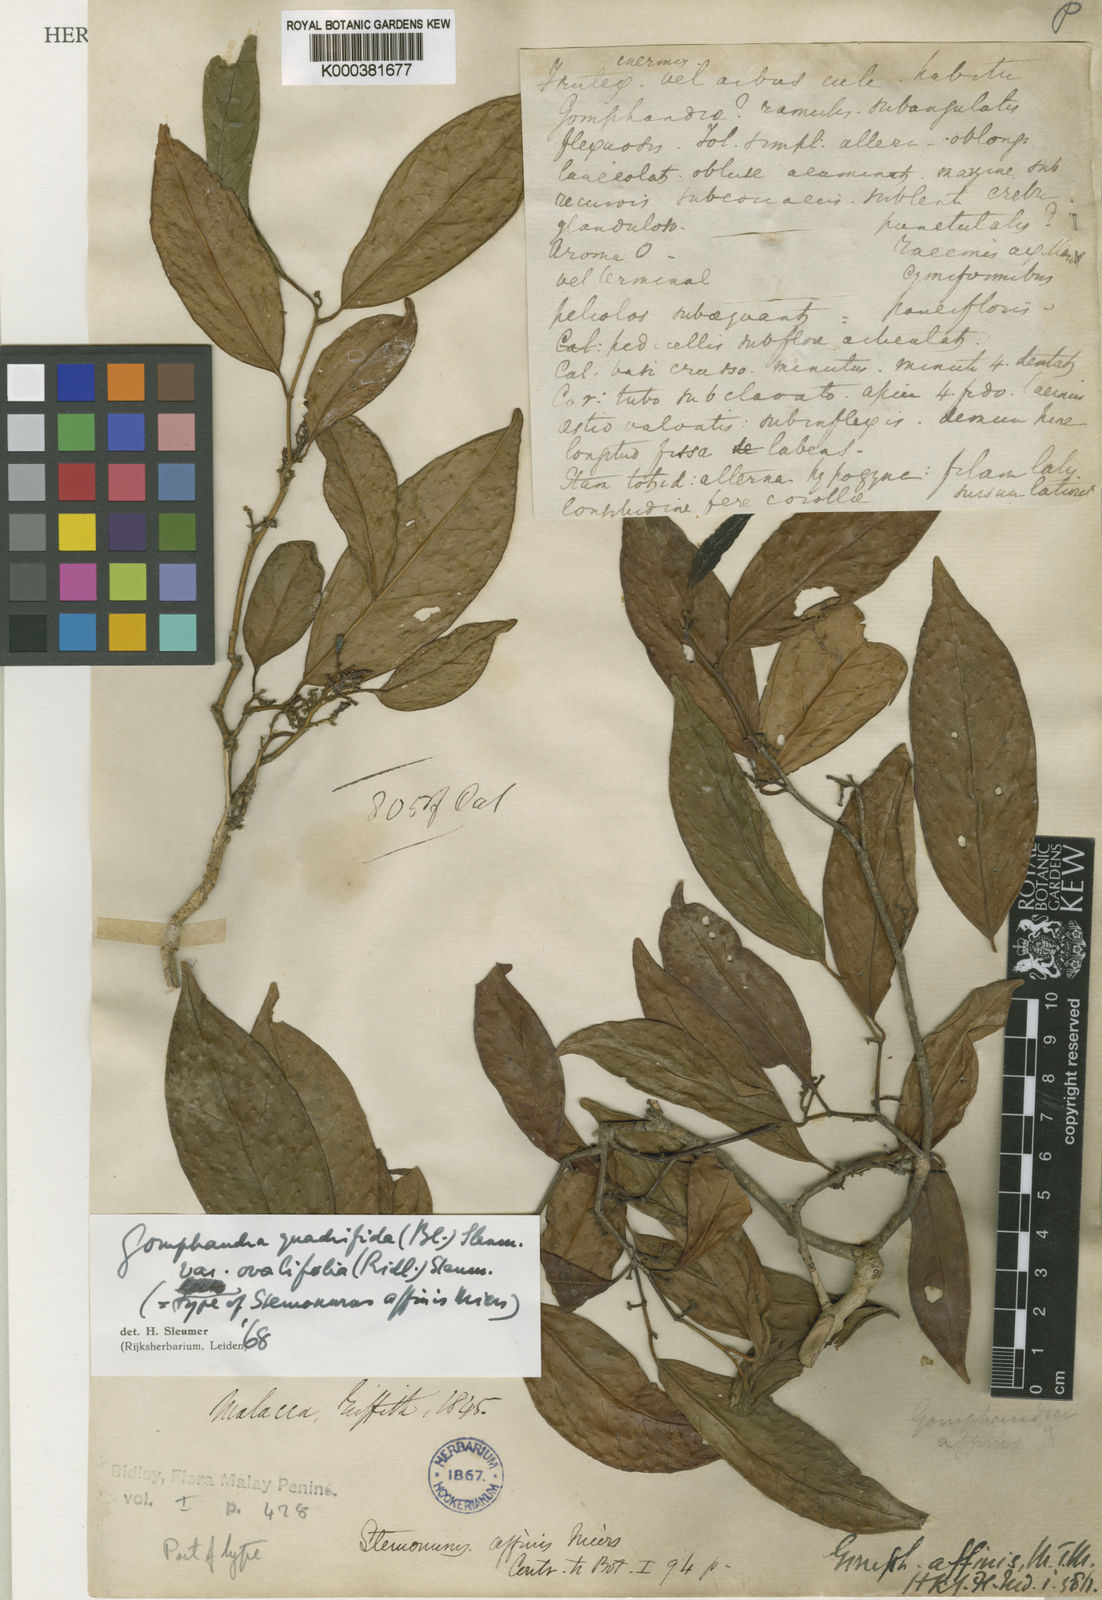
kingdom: Plantae
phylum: Tracheophyta
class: Magnoliopsida
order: Cardiopteridales
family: Stemonuraceae
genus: Gomphandra
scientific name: Gomphandra quadrifida
